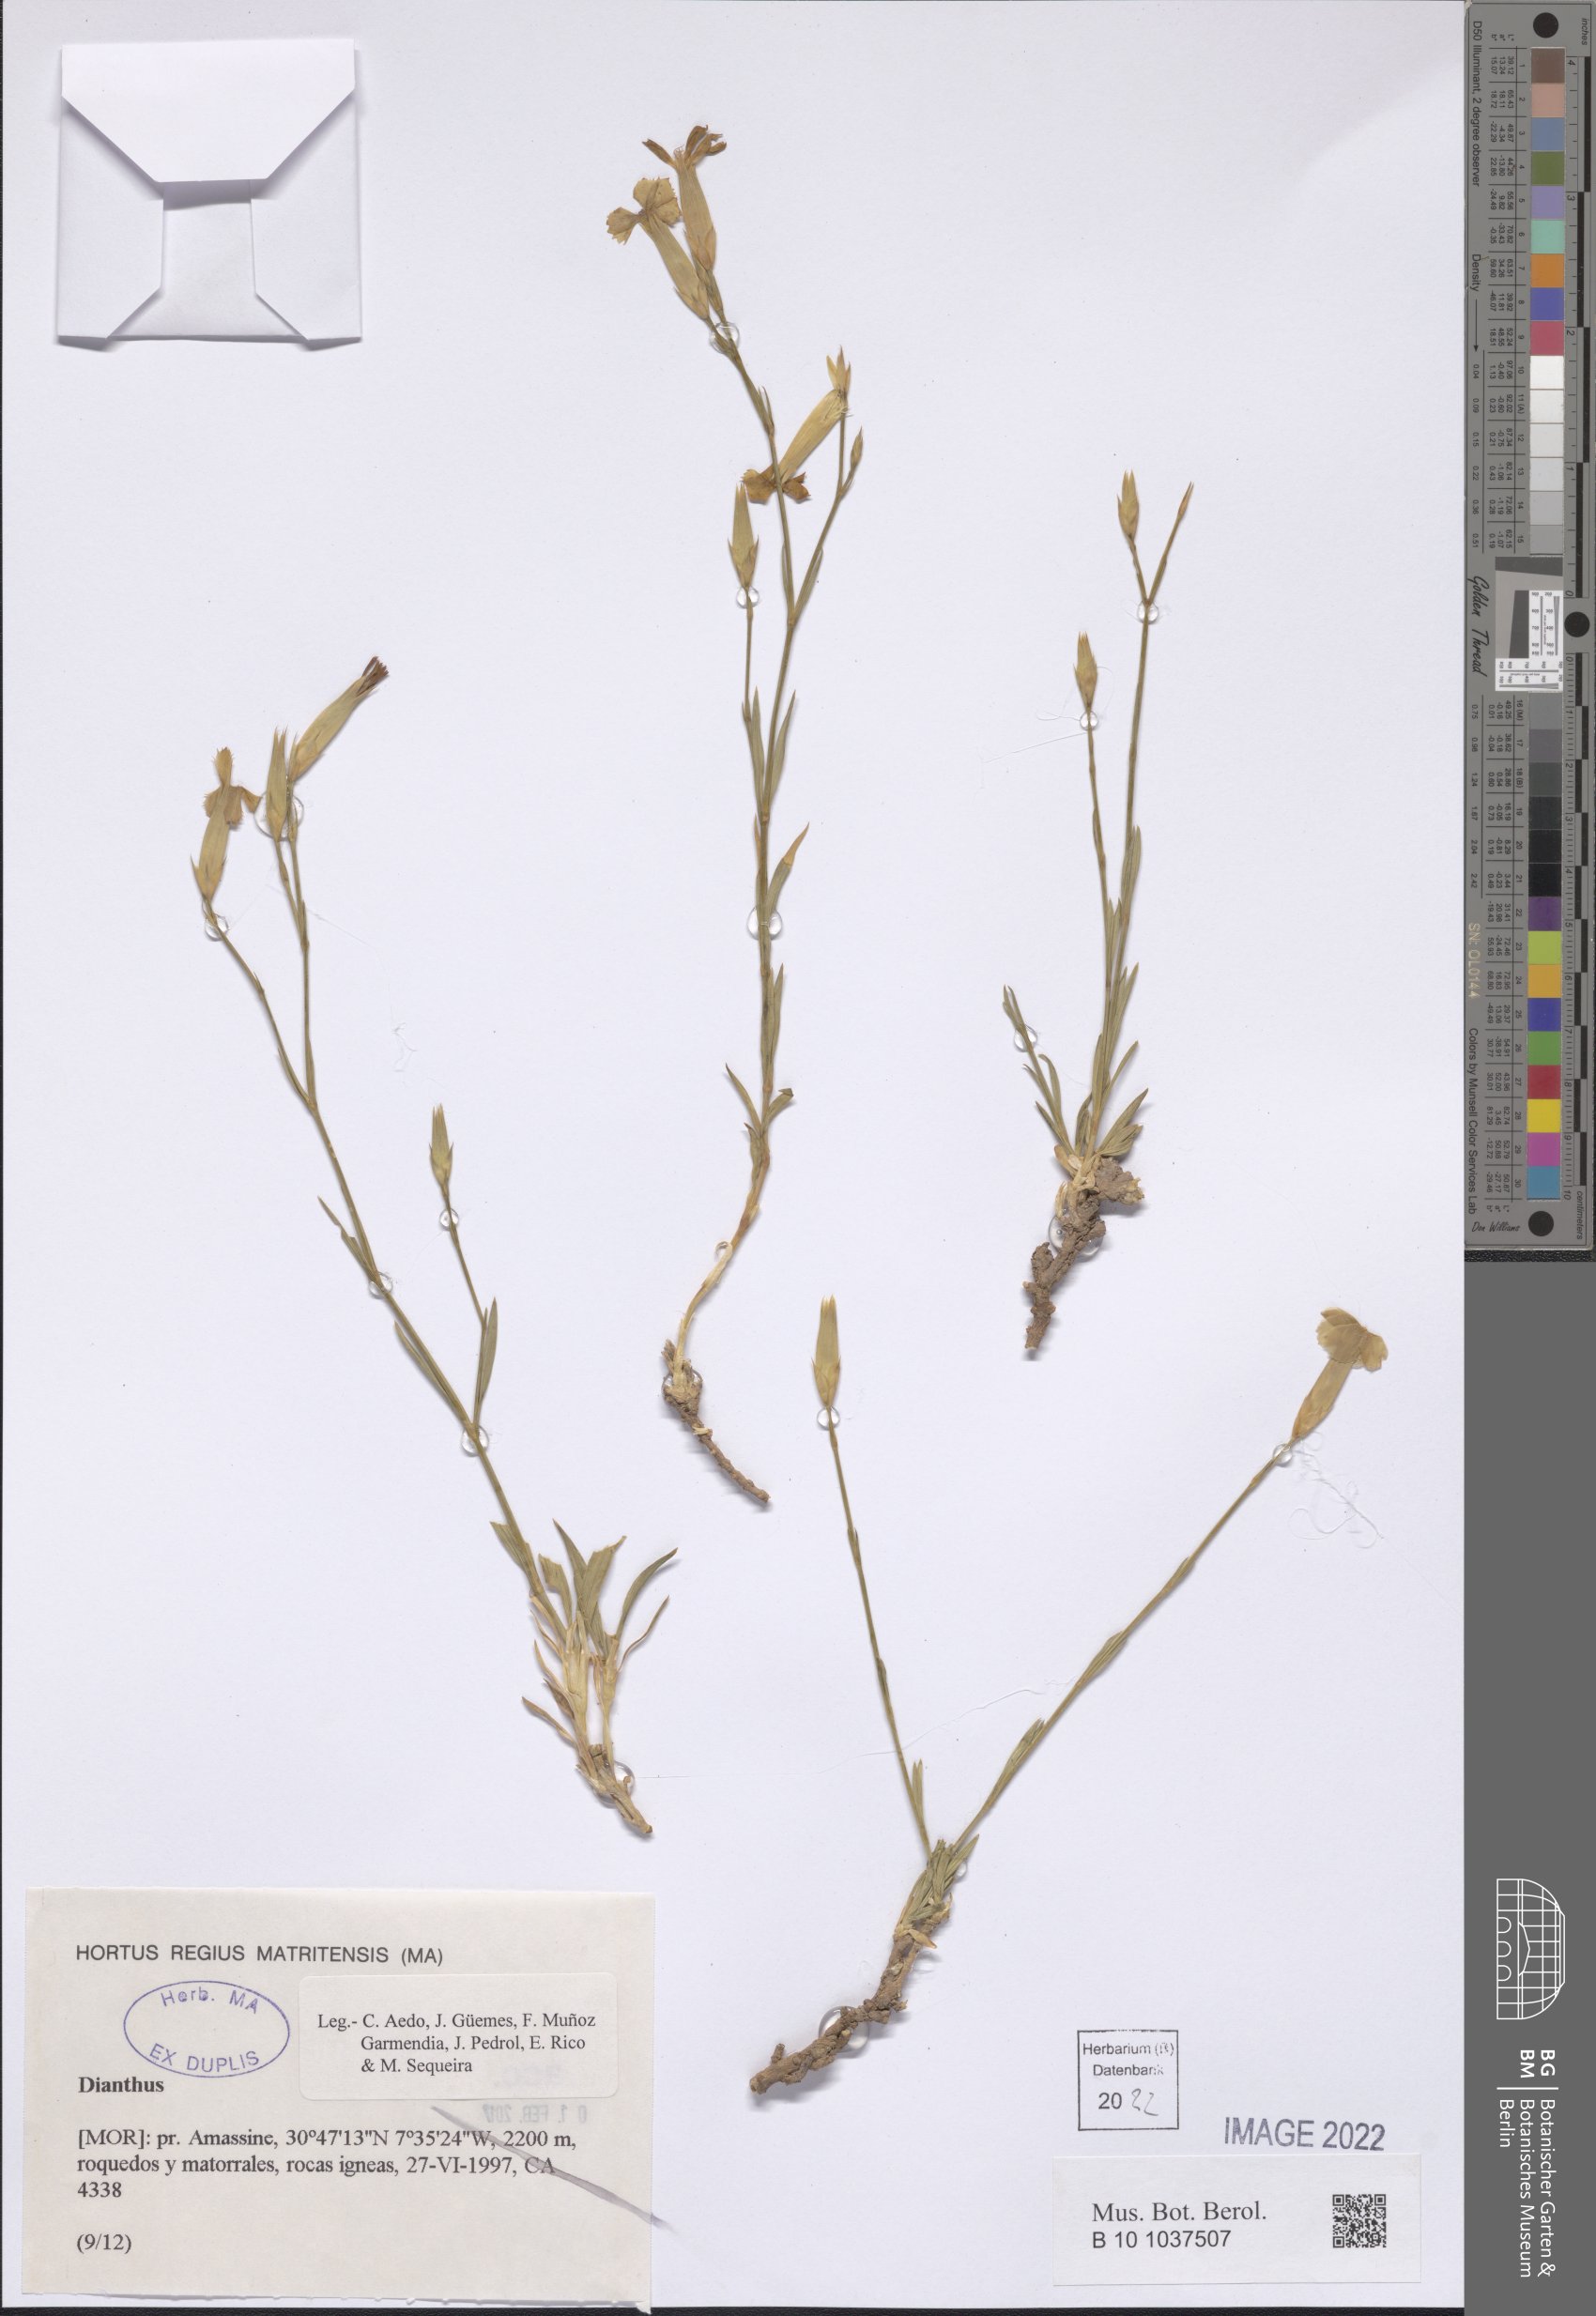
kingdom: Plantae
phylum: Tracheophyta
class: Magnoliopsida
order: Caryophyllales
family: Caryophyllaceae
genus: Dianthus
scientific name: Dianthus
